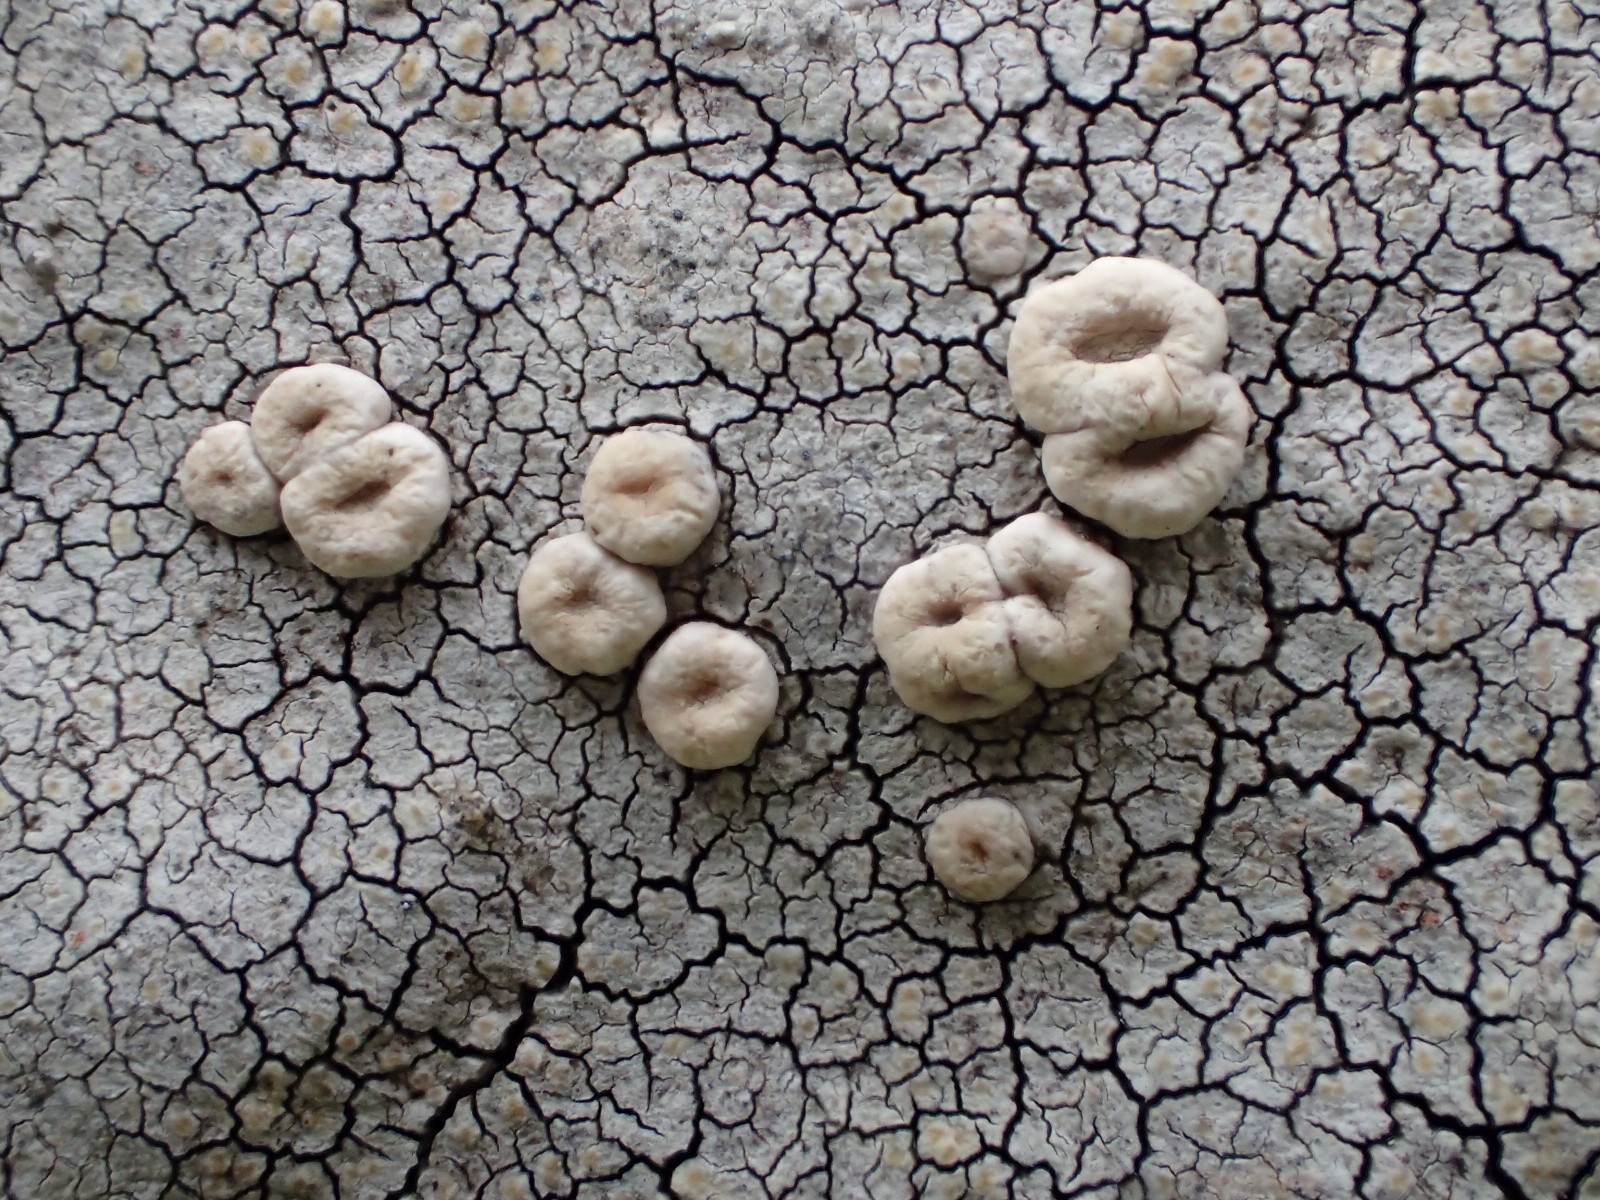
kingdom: Fungi
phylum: Ascomycota
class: Lecanoromycetes
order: Pertusariales
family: Ochrolechiaceae
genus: Ochrolechia
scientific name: Ochrolechia parella
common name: almindelig blegskivelav
